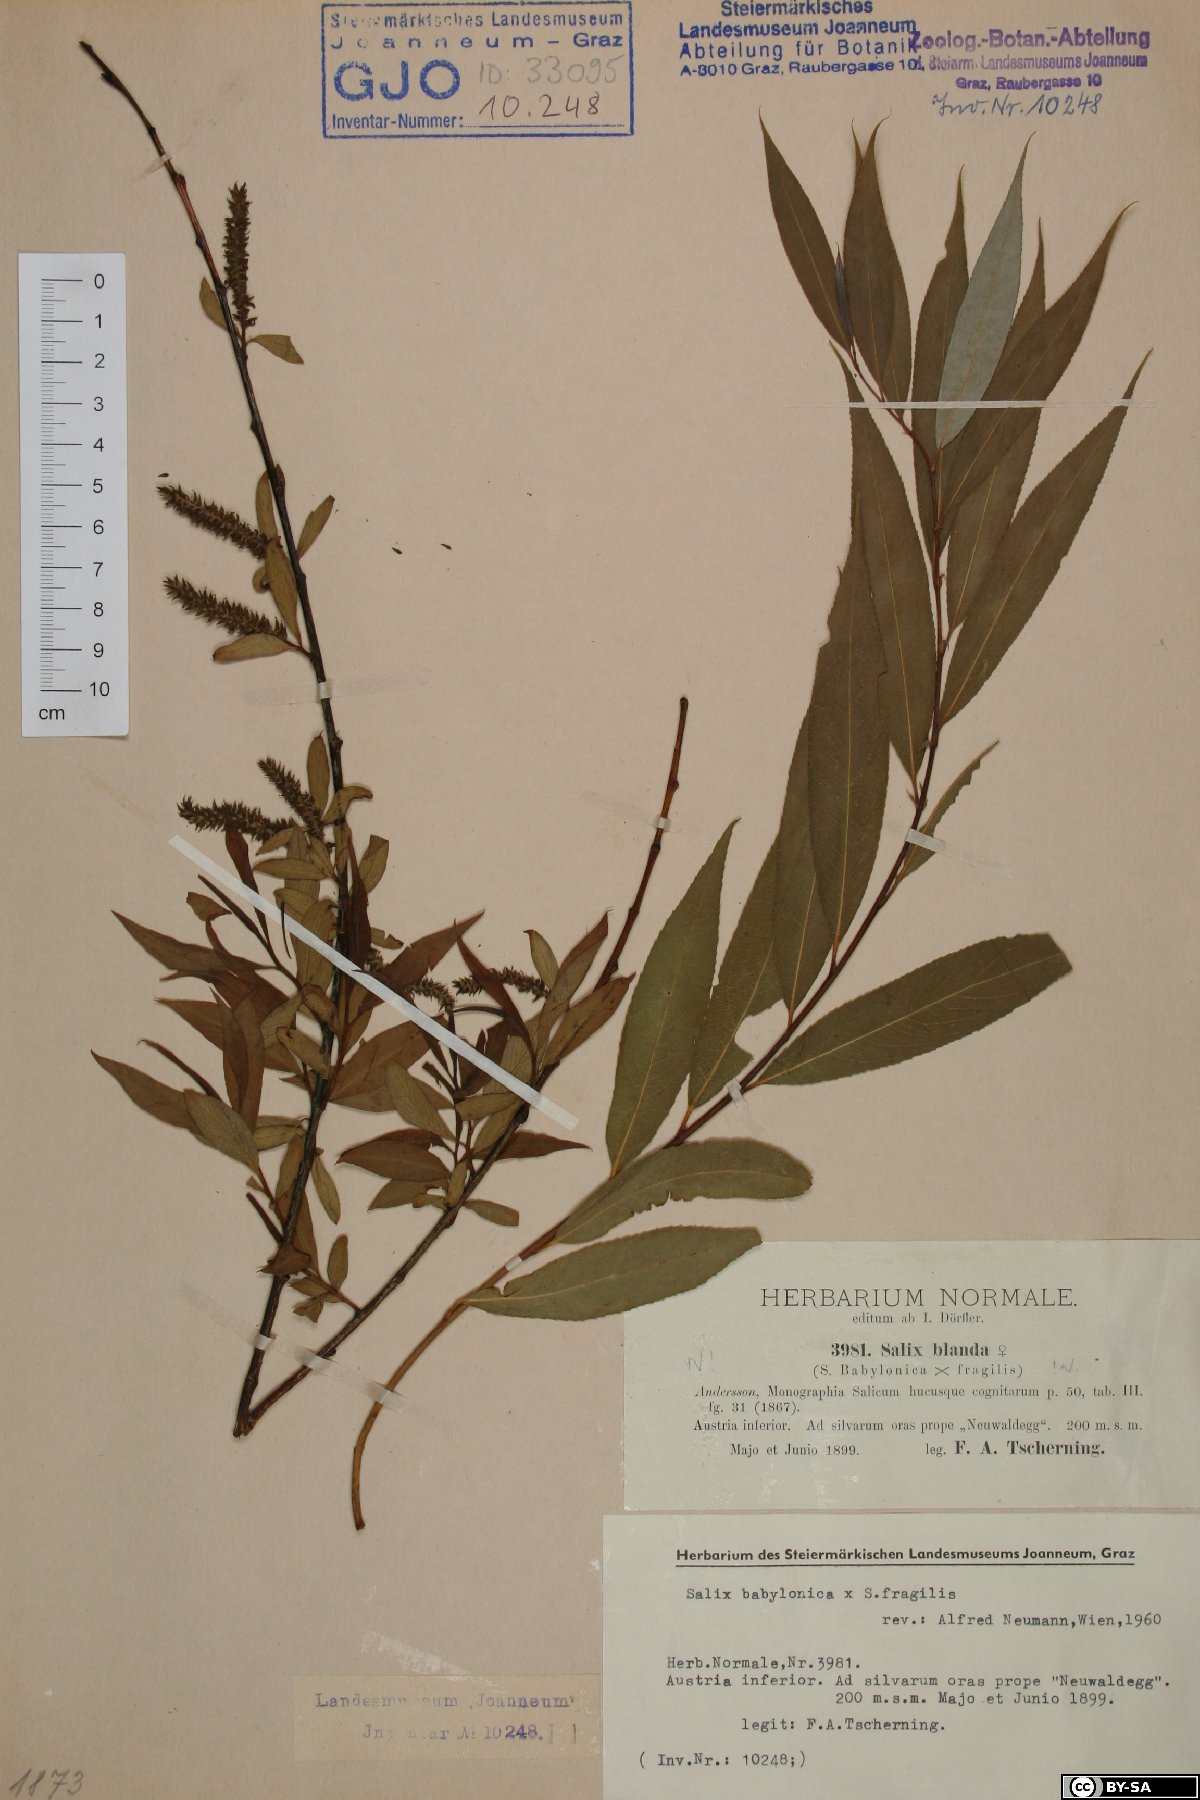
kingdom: Plantae
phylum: Tracheophyta
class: Magnoliopsida
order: Malpighiales
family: Salicaceae
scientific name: Salicaceae
